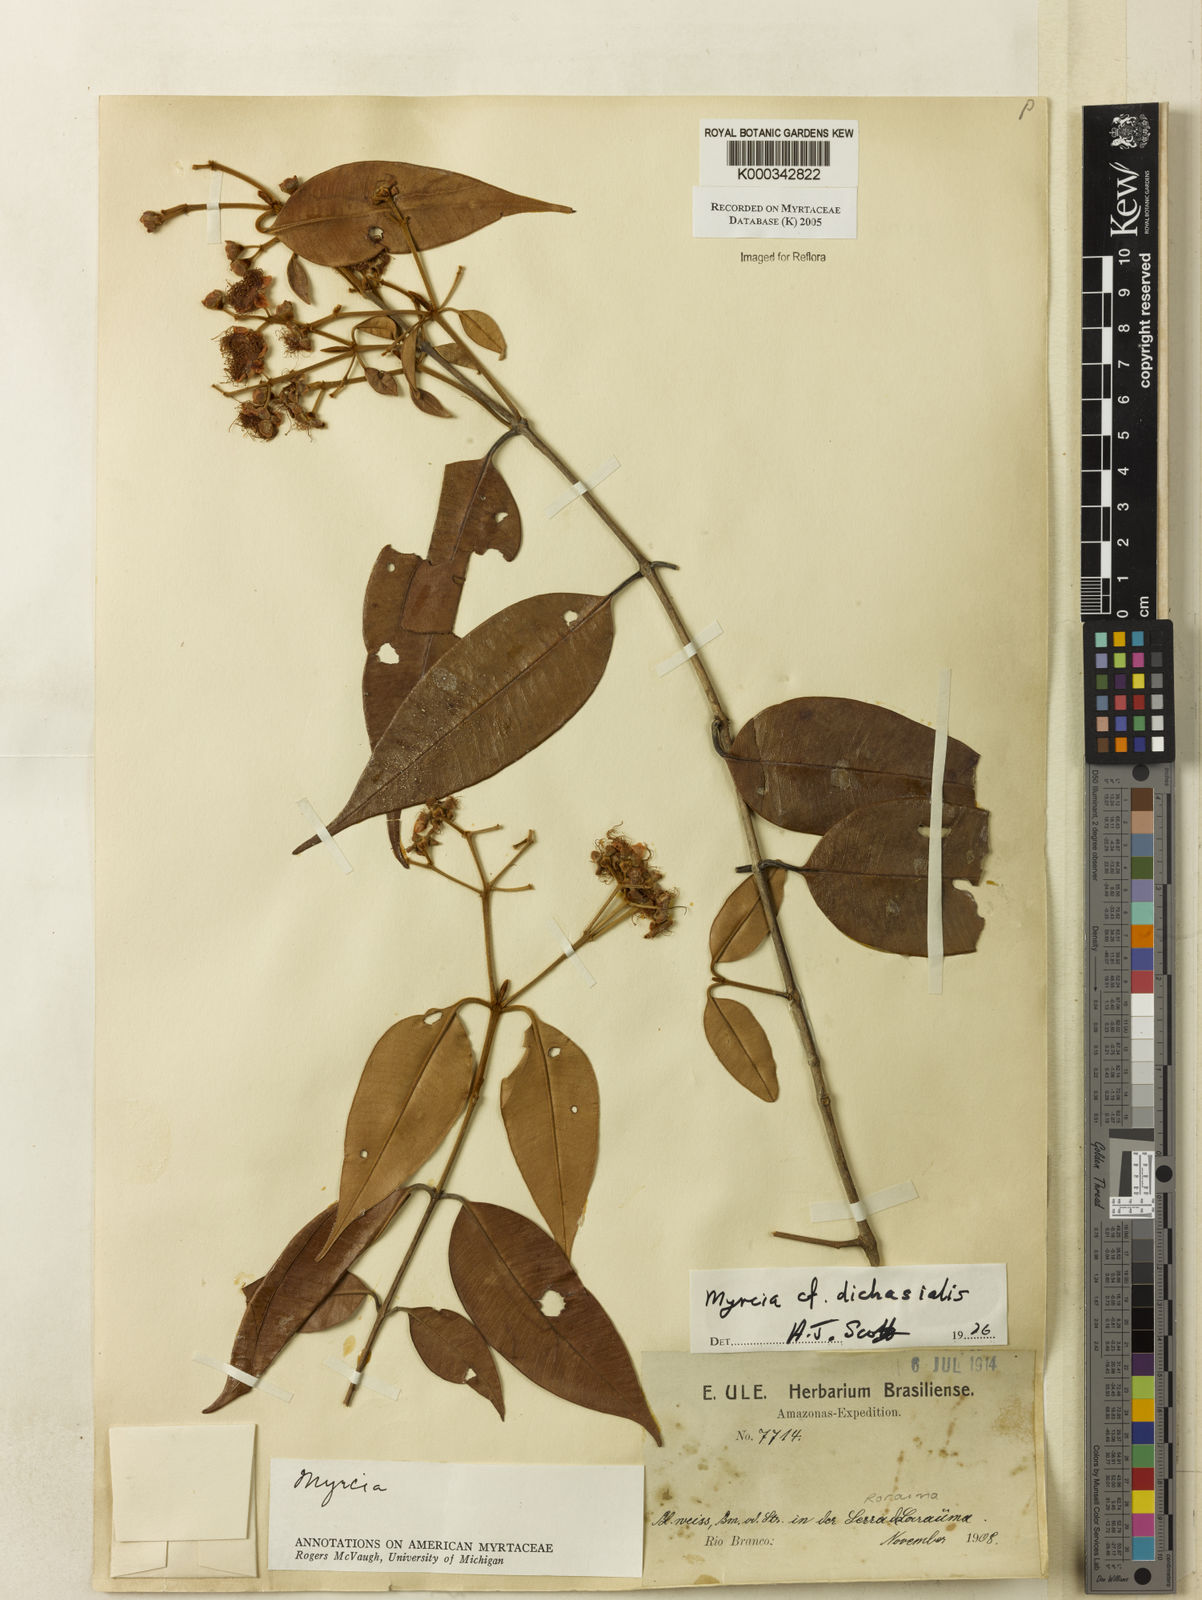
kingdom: Plantae
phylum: Tracheophyta
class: Magnoliopsida
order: Myrtales
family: Myrtaceae
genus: Myrcia
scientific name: Myrcia dichasialis
